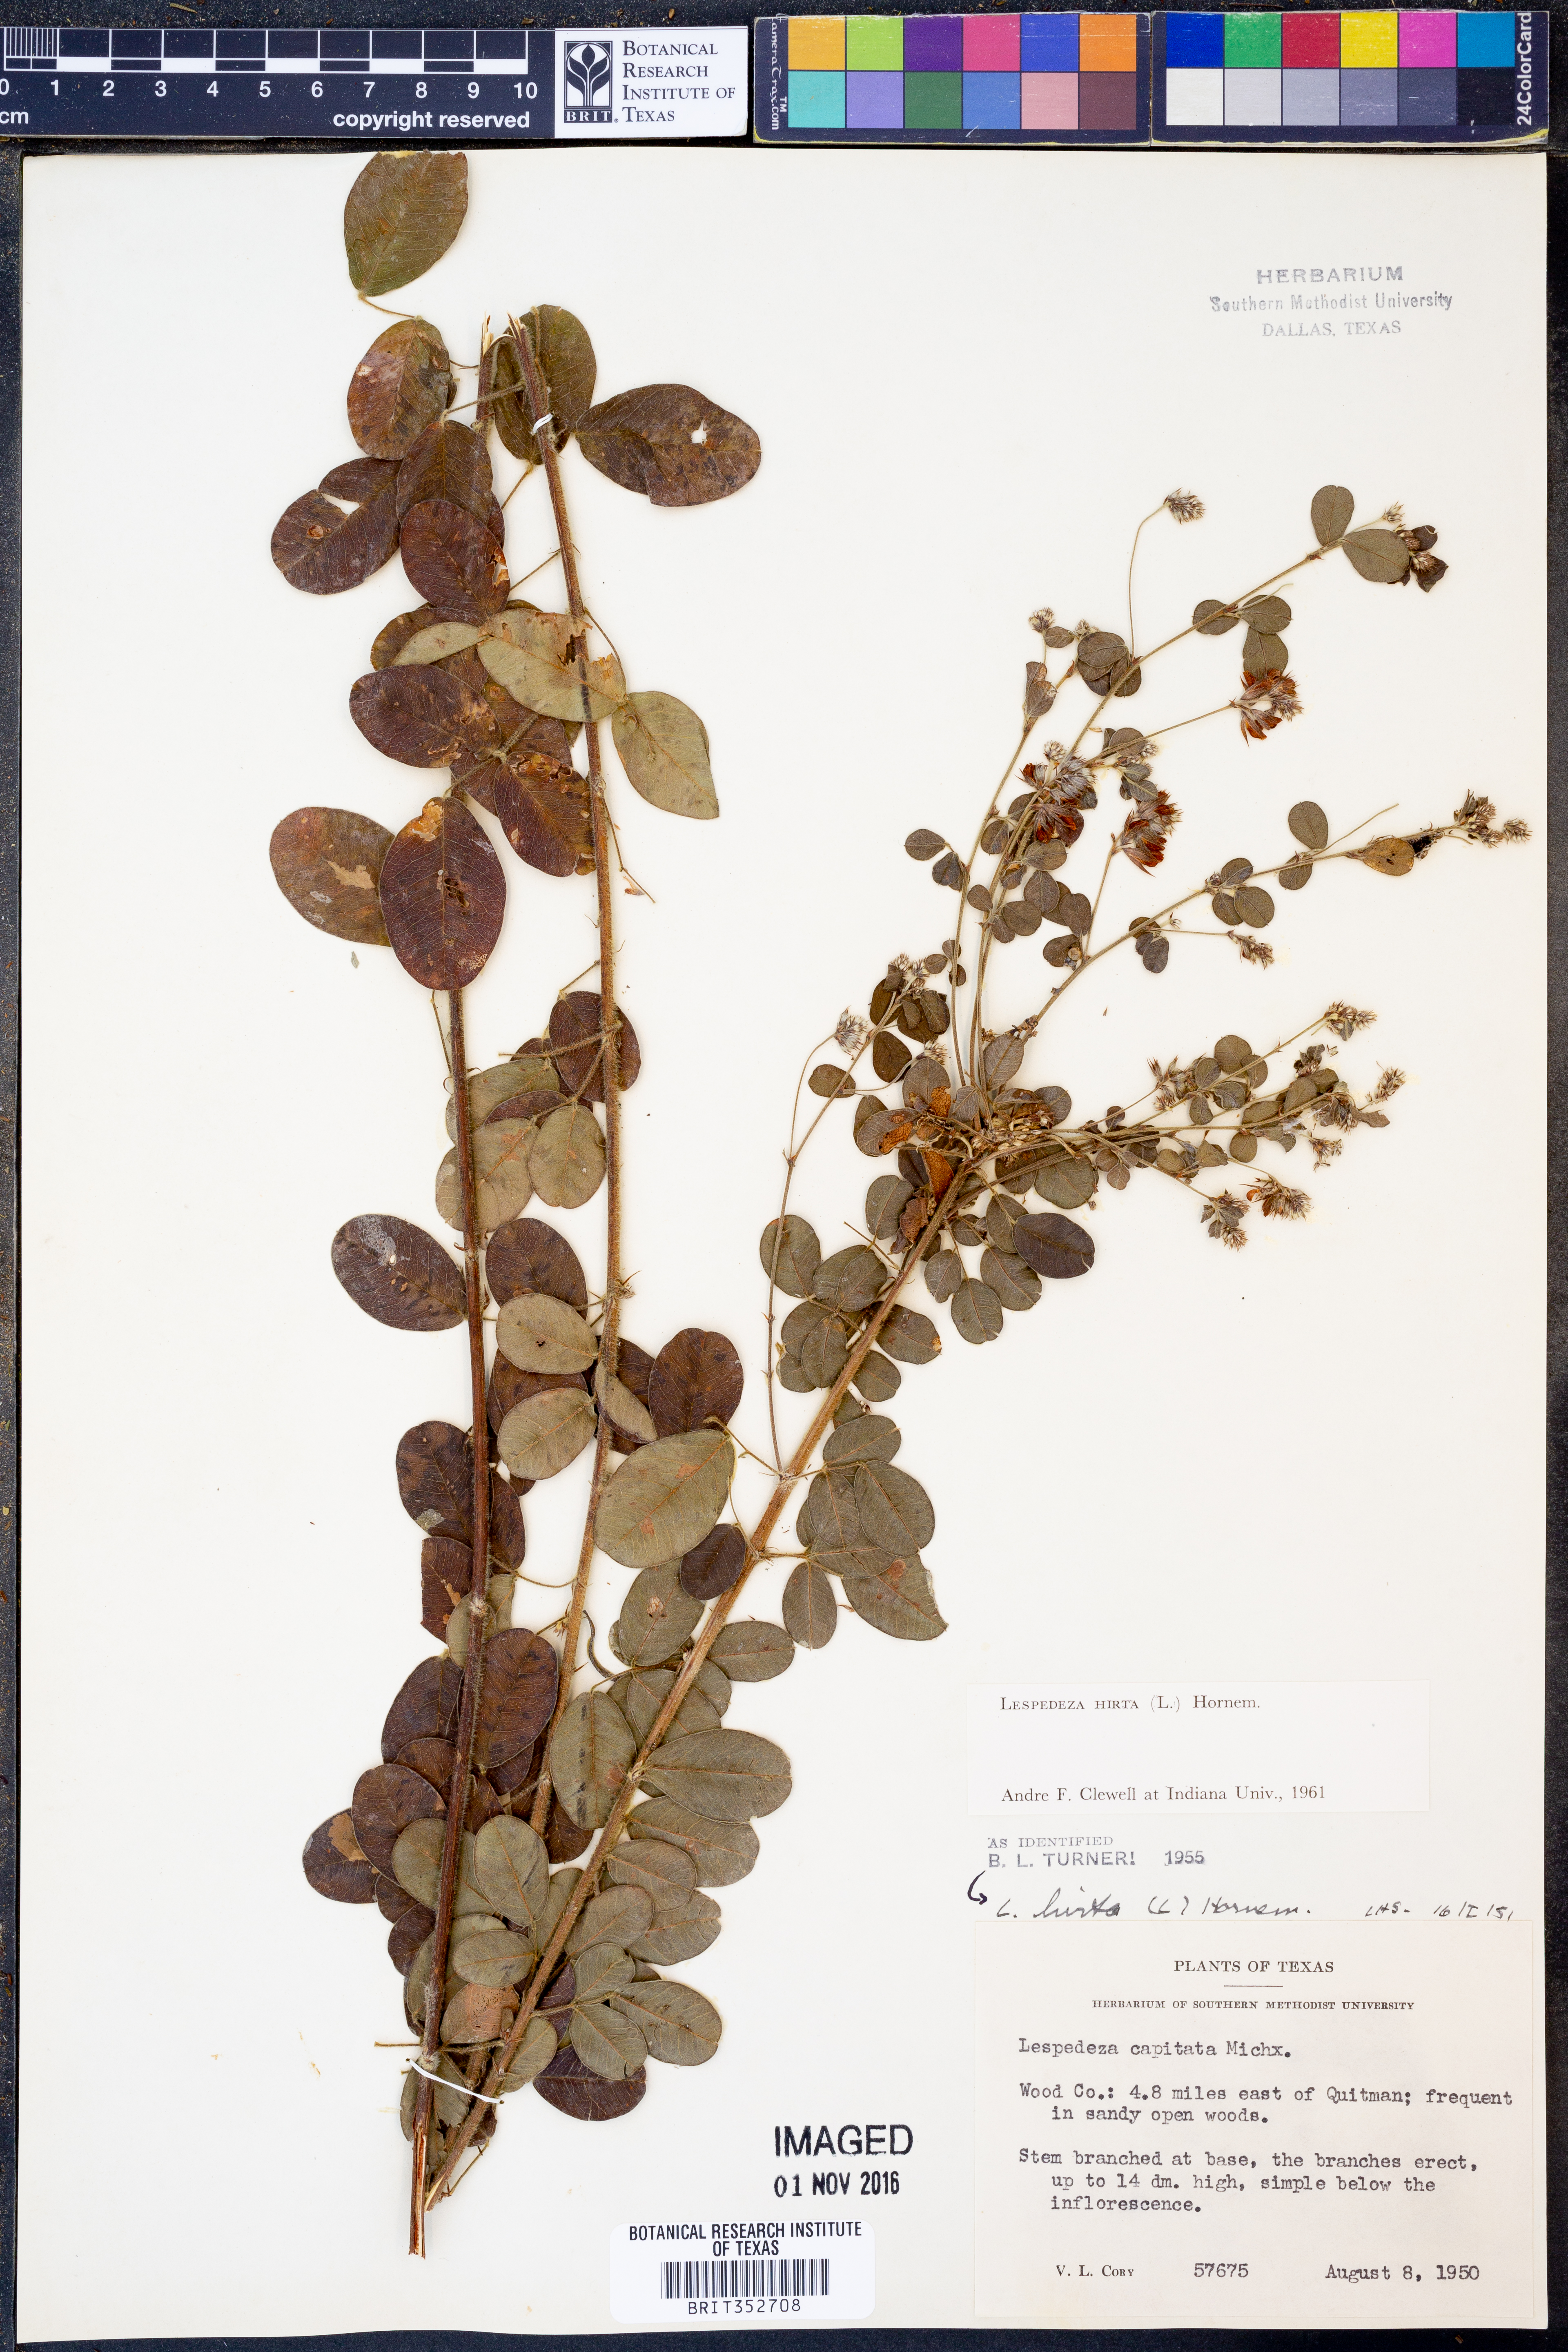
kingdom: Plantae
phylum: Tracheophyta
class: Magnoliopsida
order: Fabales
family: Fabaceae
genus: Lespedeza
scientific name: Lespedeza hirta
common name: Hairy lespedeza
